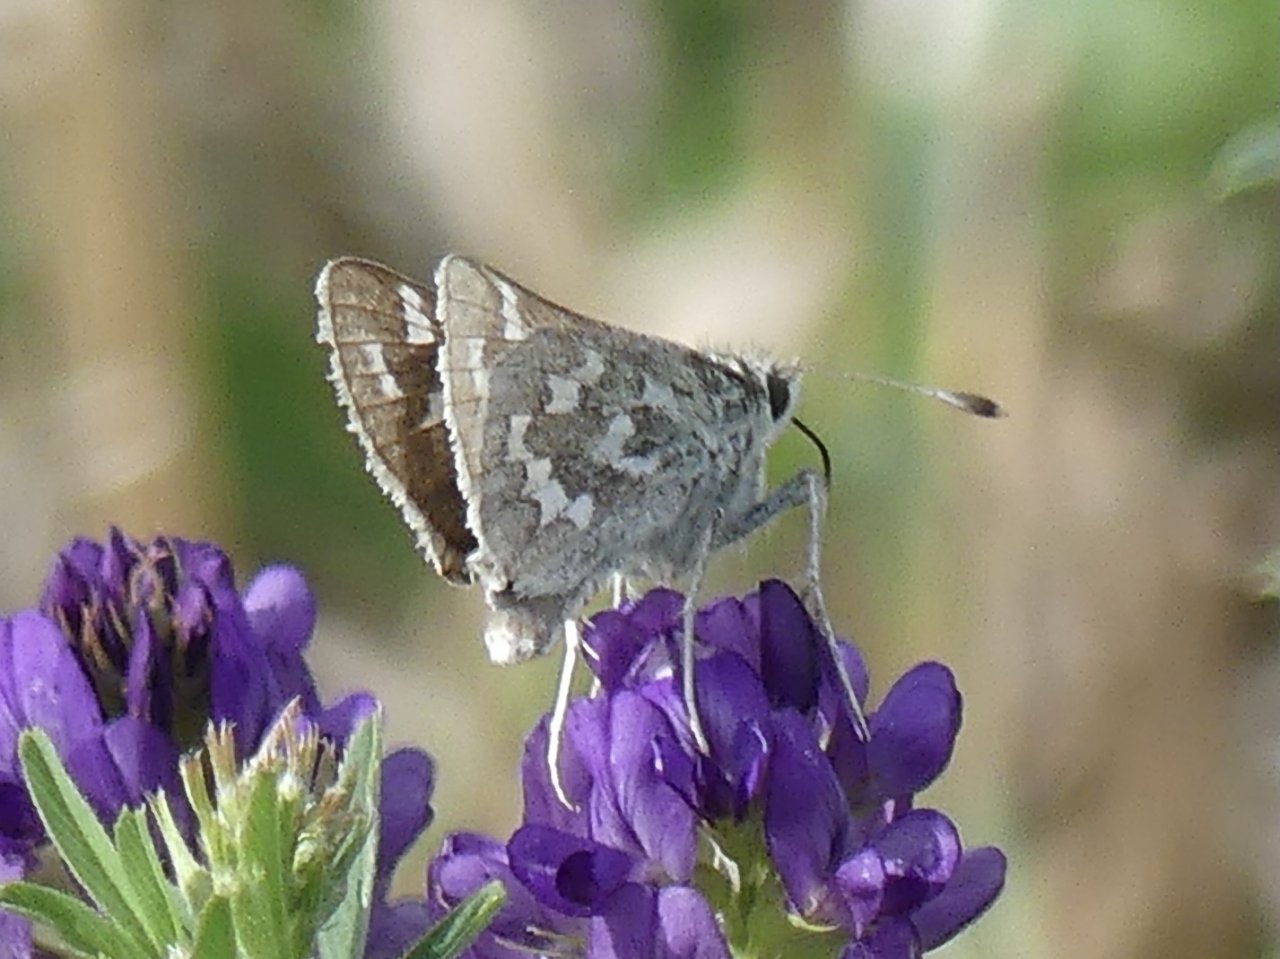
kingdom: Animalia
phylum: Arthropoda
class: Insecta
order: Lepidoptera
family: Hesperiidae
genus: Hesperia
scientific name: Hesperia nevada
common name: Nevada Skipper
